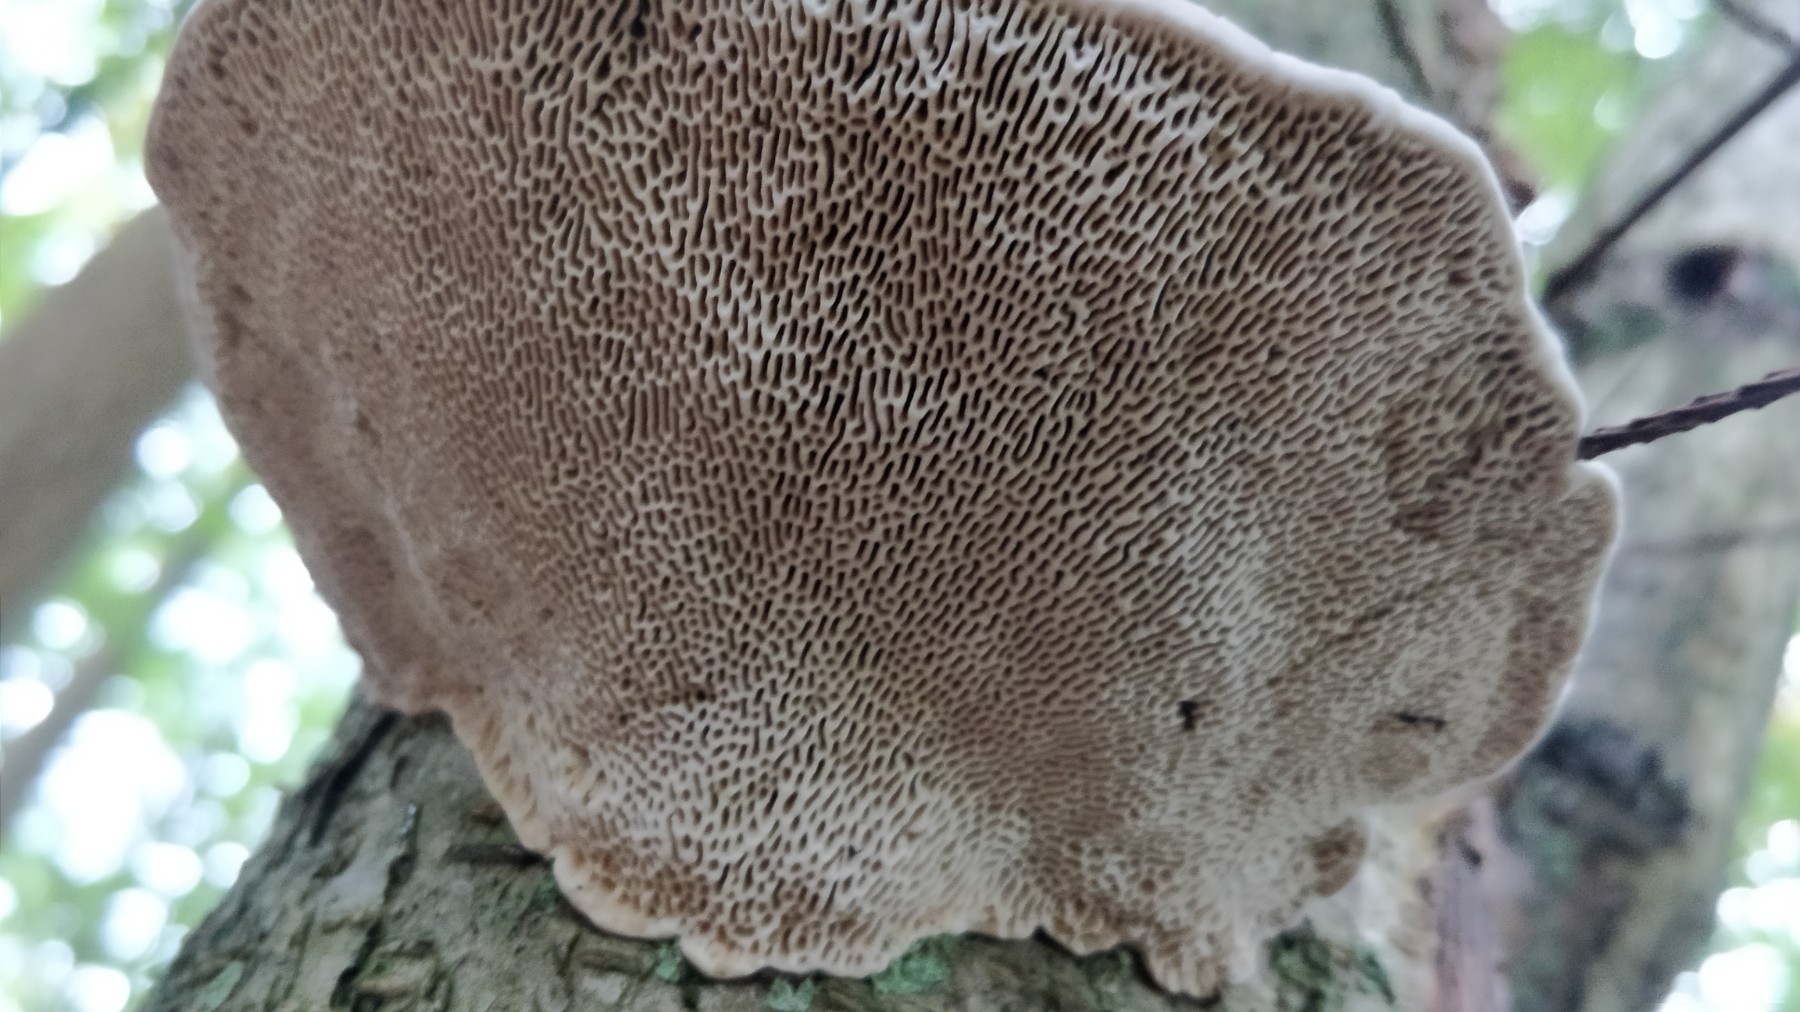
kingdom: Fungi
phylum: Basidiomycota
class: Agaricomycetes
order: Polyporales
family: Polyporaceae
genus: Daedaleopsis
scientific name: Daedaleopsis confragosa
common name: rødmende læderporesvamp
